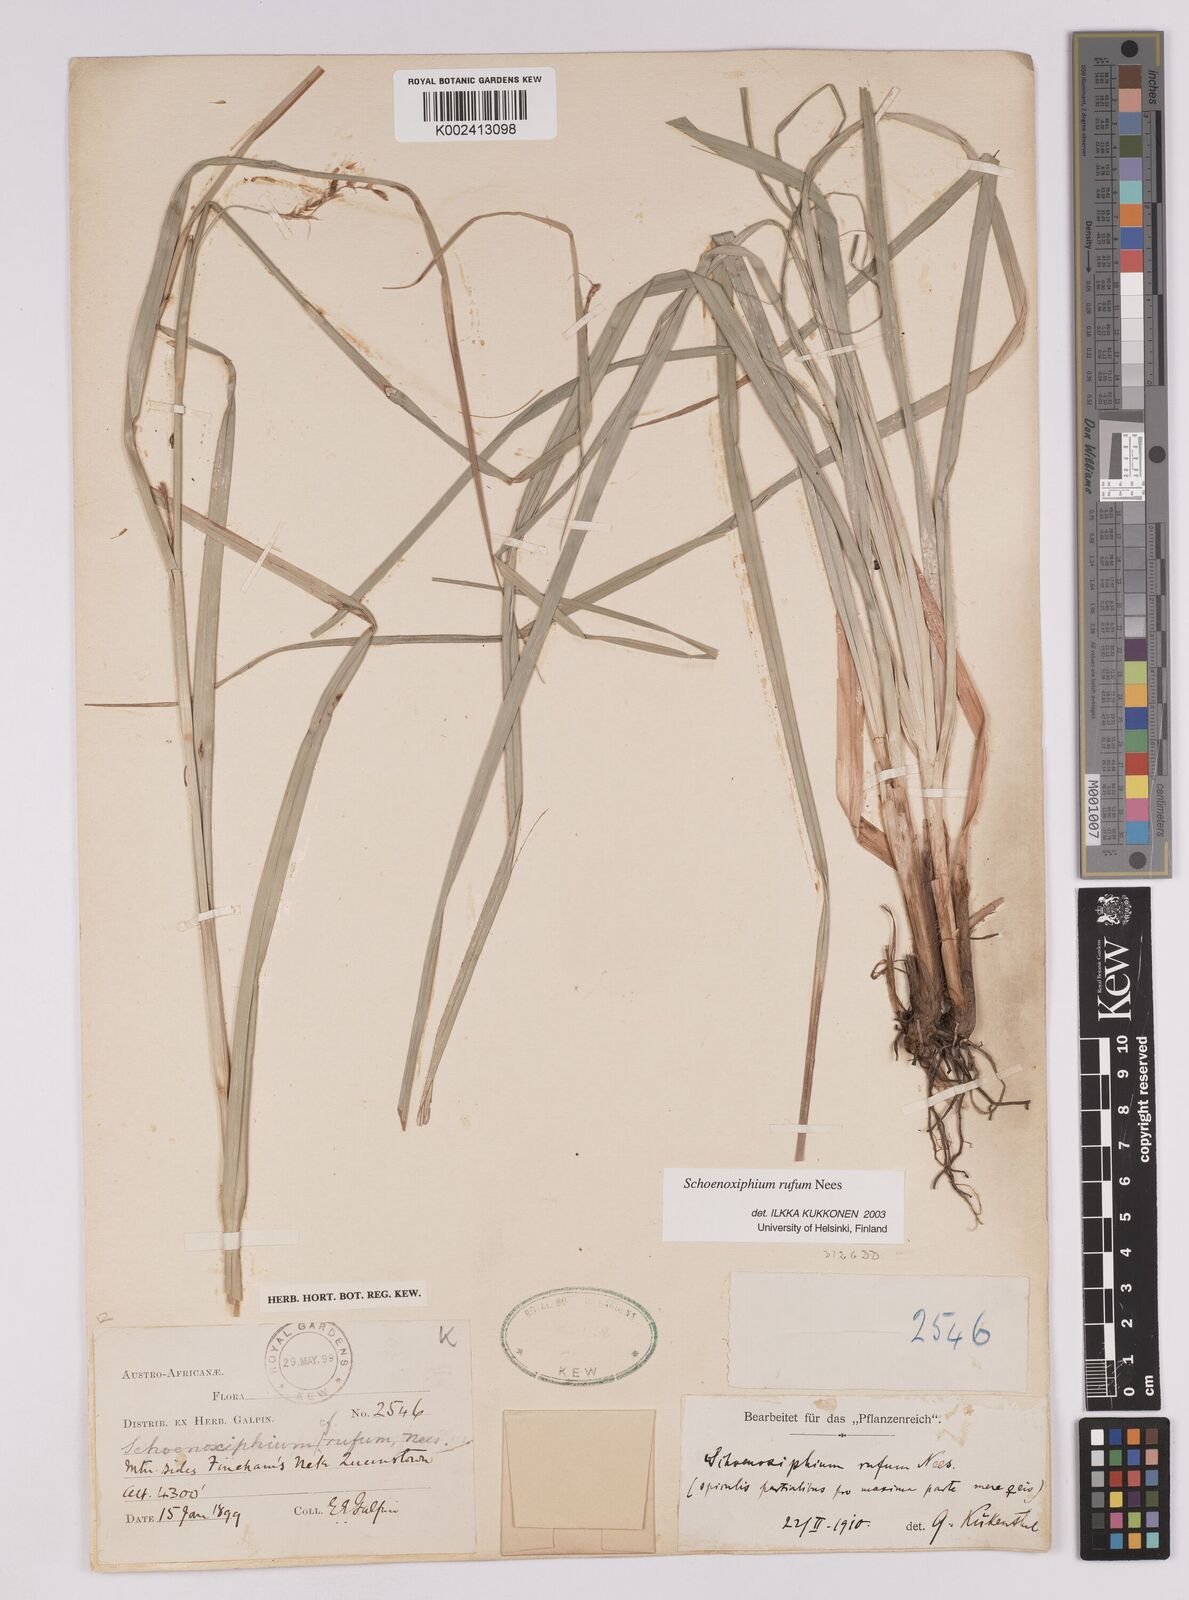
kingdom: Plantae
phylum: Tracheophyta
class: Liliopsida
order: Poales
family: Cyperaceae
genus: Carex
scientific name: Carex ludwigii
